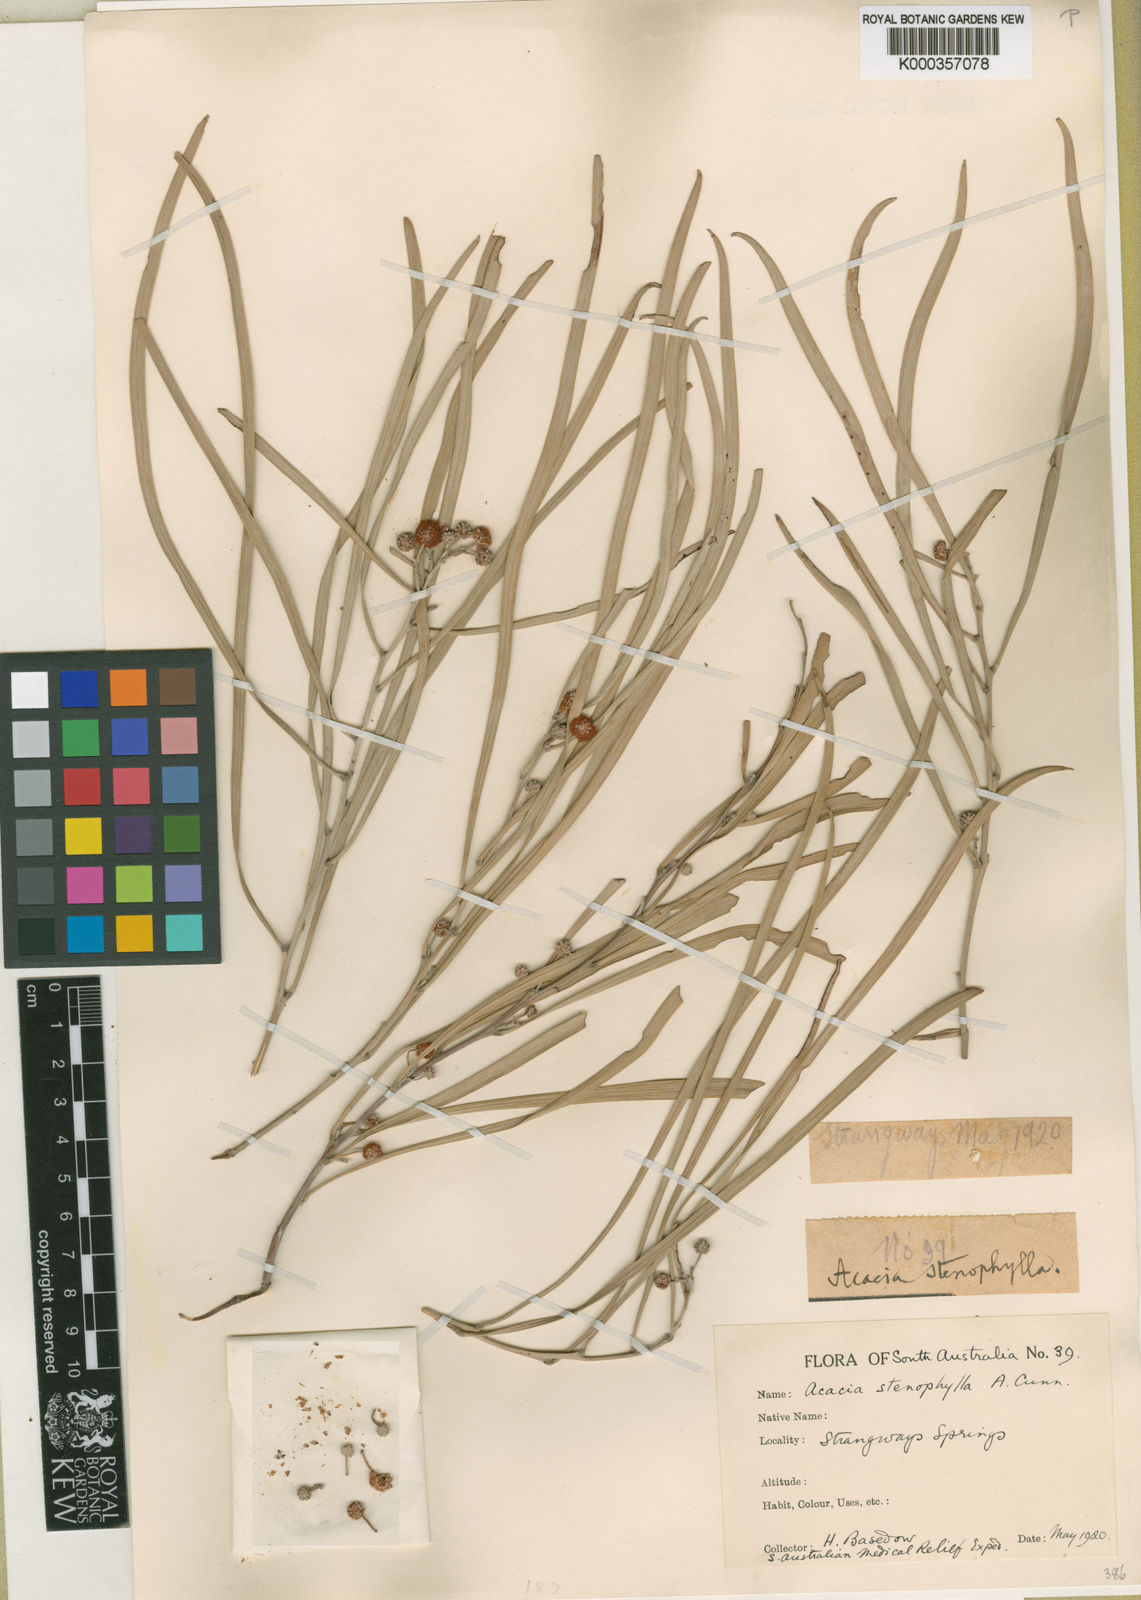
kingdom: Plantae
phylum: Tracheophyta
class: Magnoliopsida
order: Fabales
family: Fabaceae
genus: Acacia
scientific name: Acacia stenophylla
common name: River cooba
